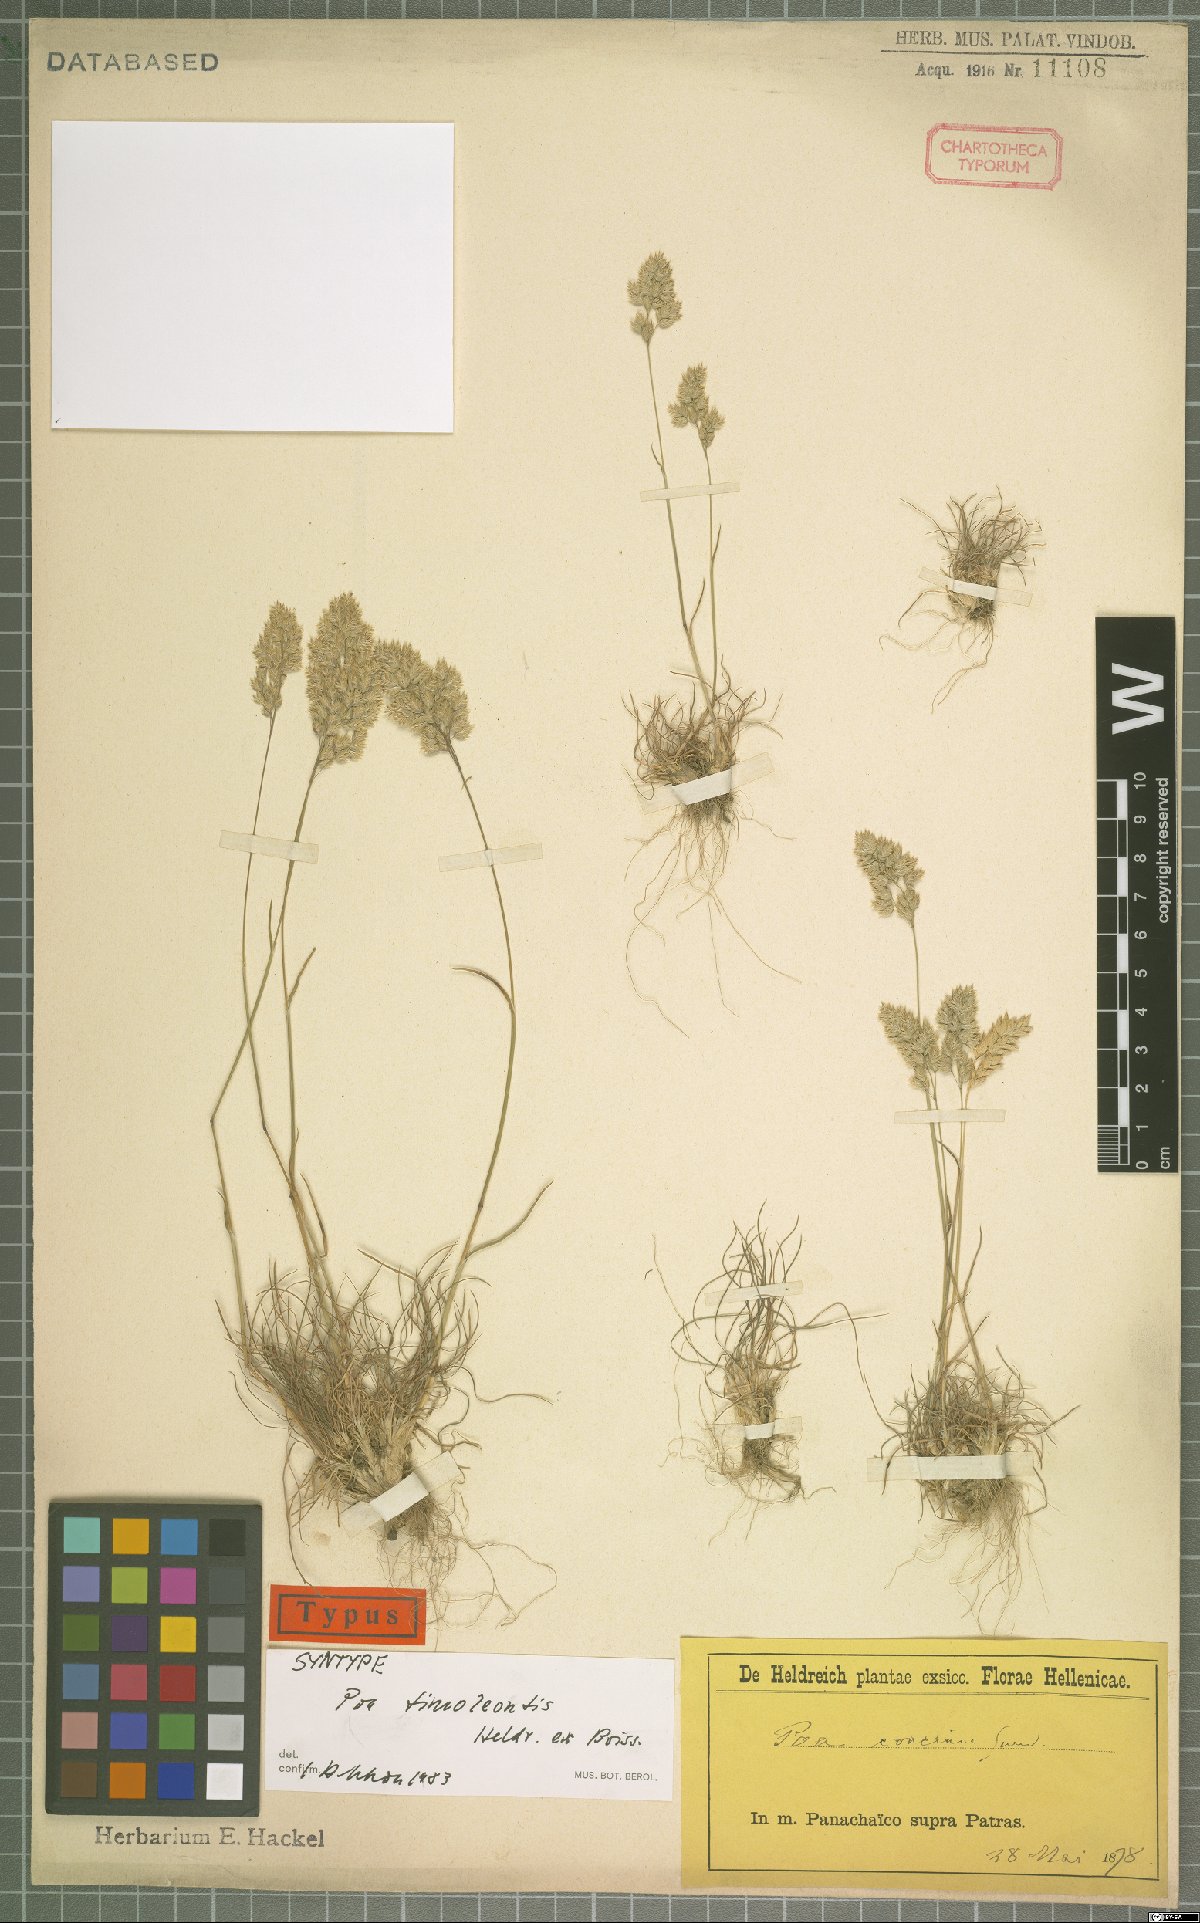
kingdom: Plantae
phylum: Tracheophyta
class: Liliopsida
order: Poales
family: Poaceae
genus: Poa
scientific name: Poa timoleontis
